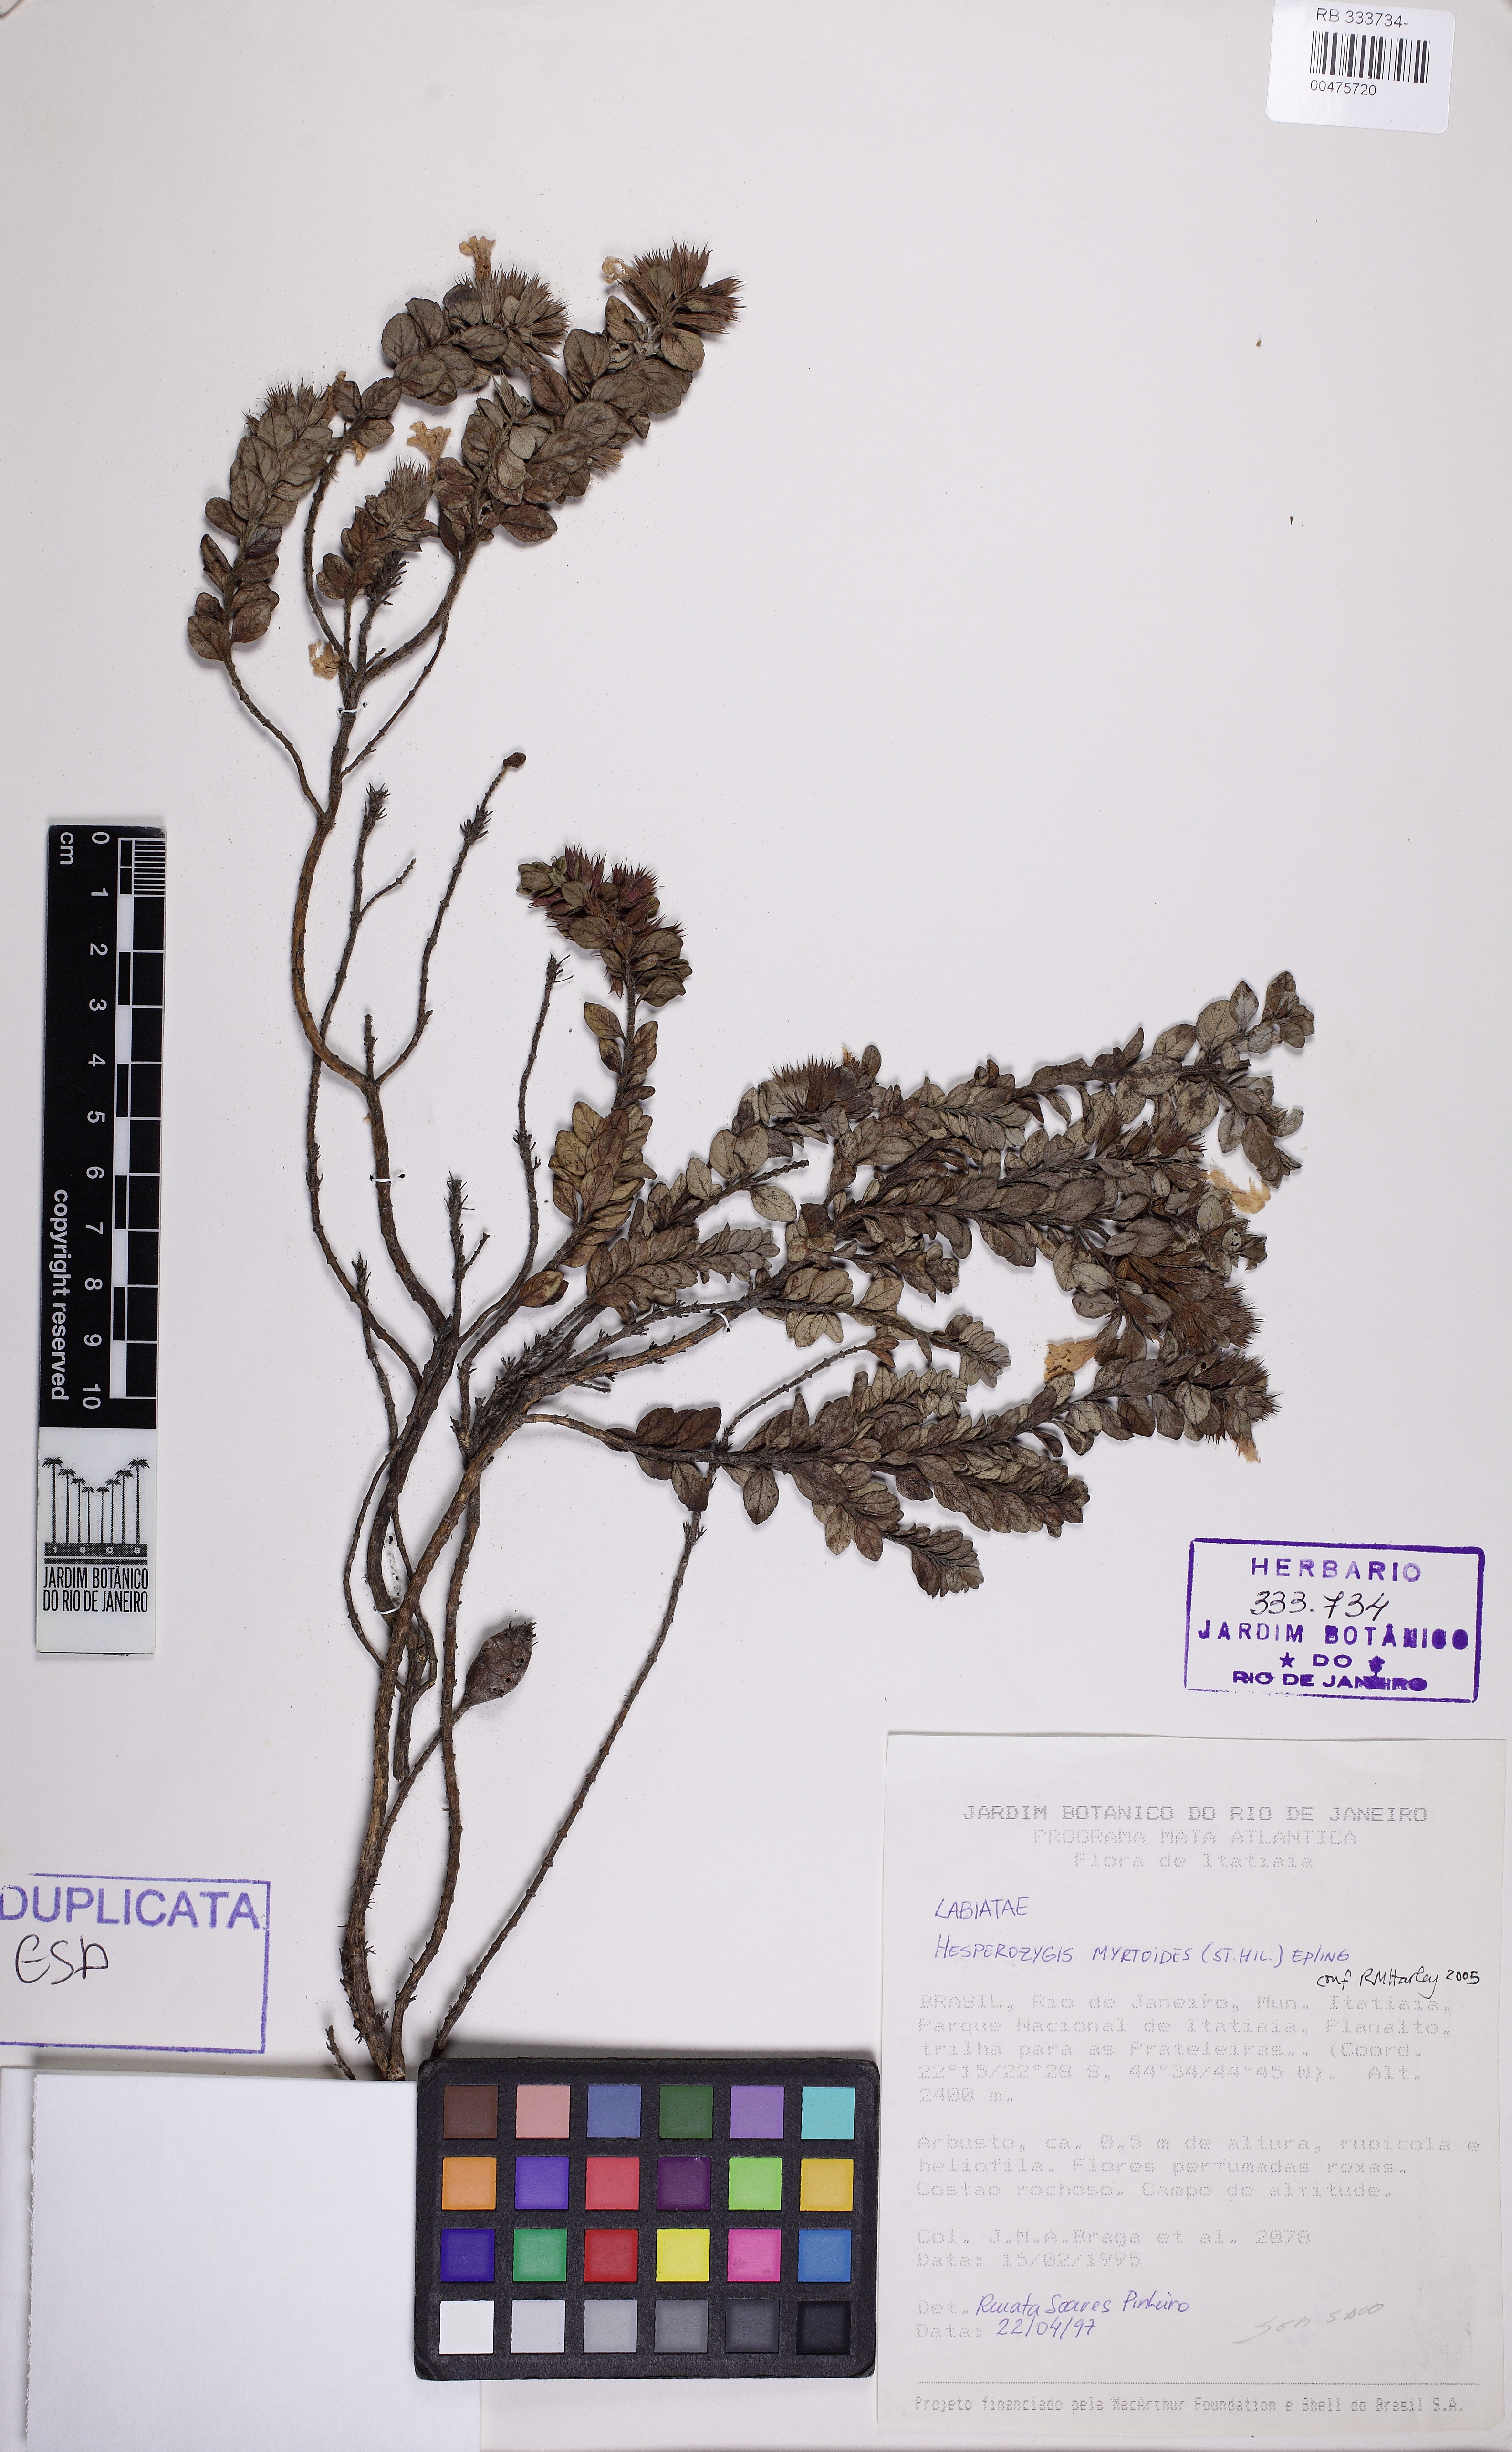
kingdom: Plantae
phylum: Tracheophyta
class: Magnoliopsida
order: Lamiales
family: Lamiaceae
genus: Hesperozygis
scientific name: Hesperozygis myrtoides
